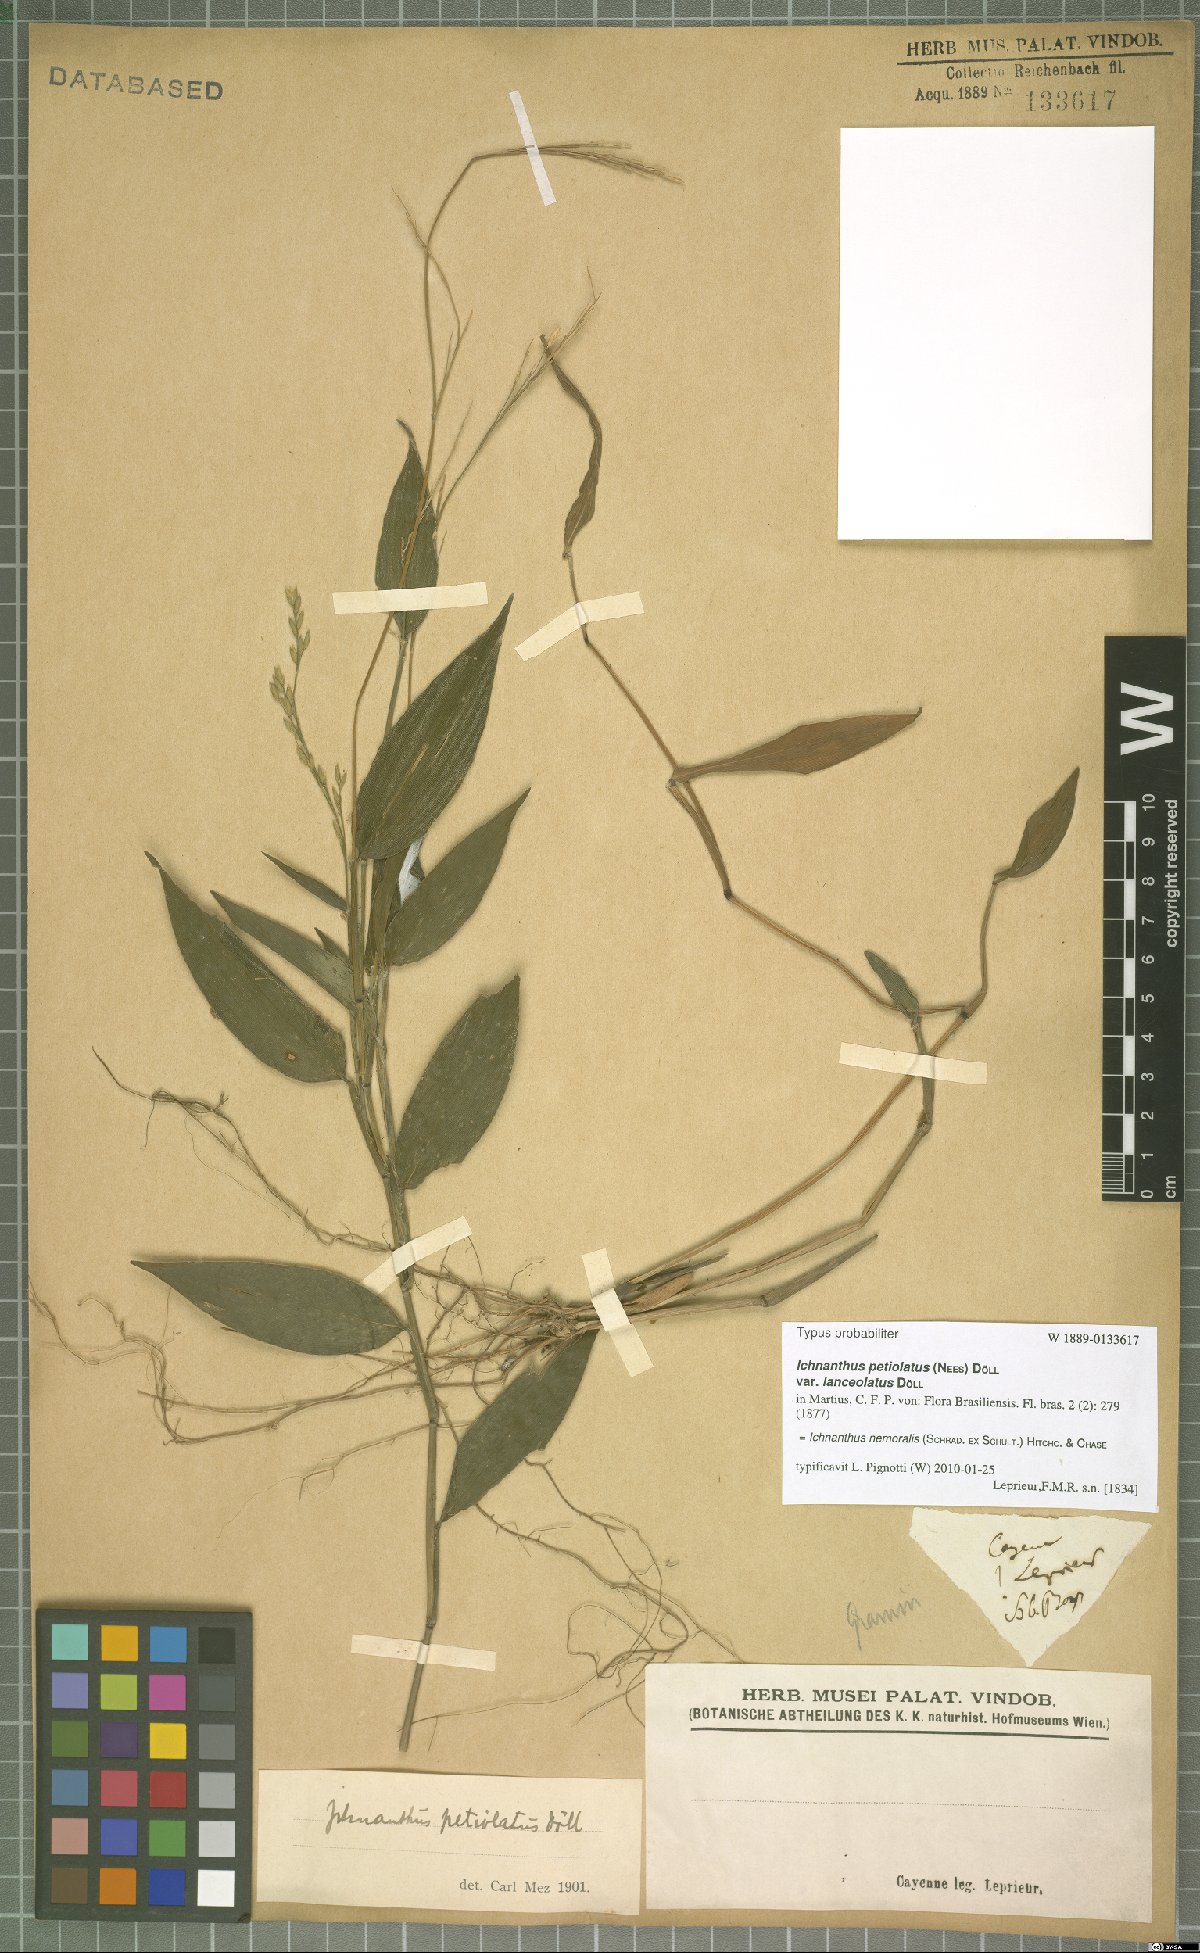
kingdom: Plantae
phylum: Tracheophyta
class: Liliopsida
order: Poales
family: Poaceae
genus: Ichnanthus
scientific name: Ichnanthus nemoralis
